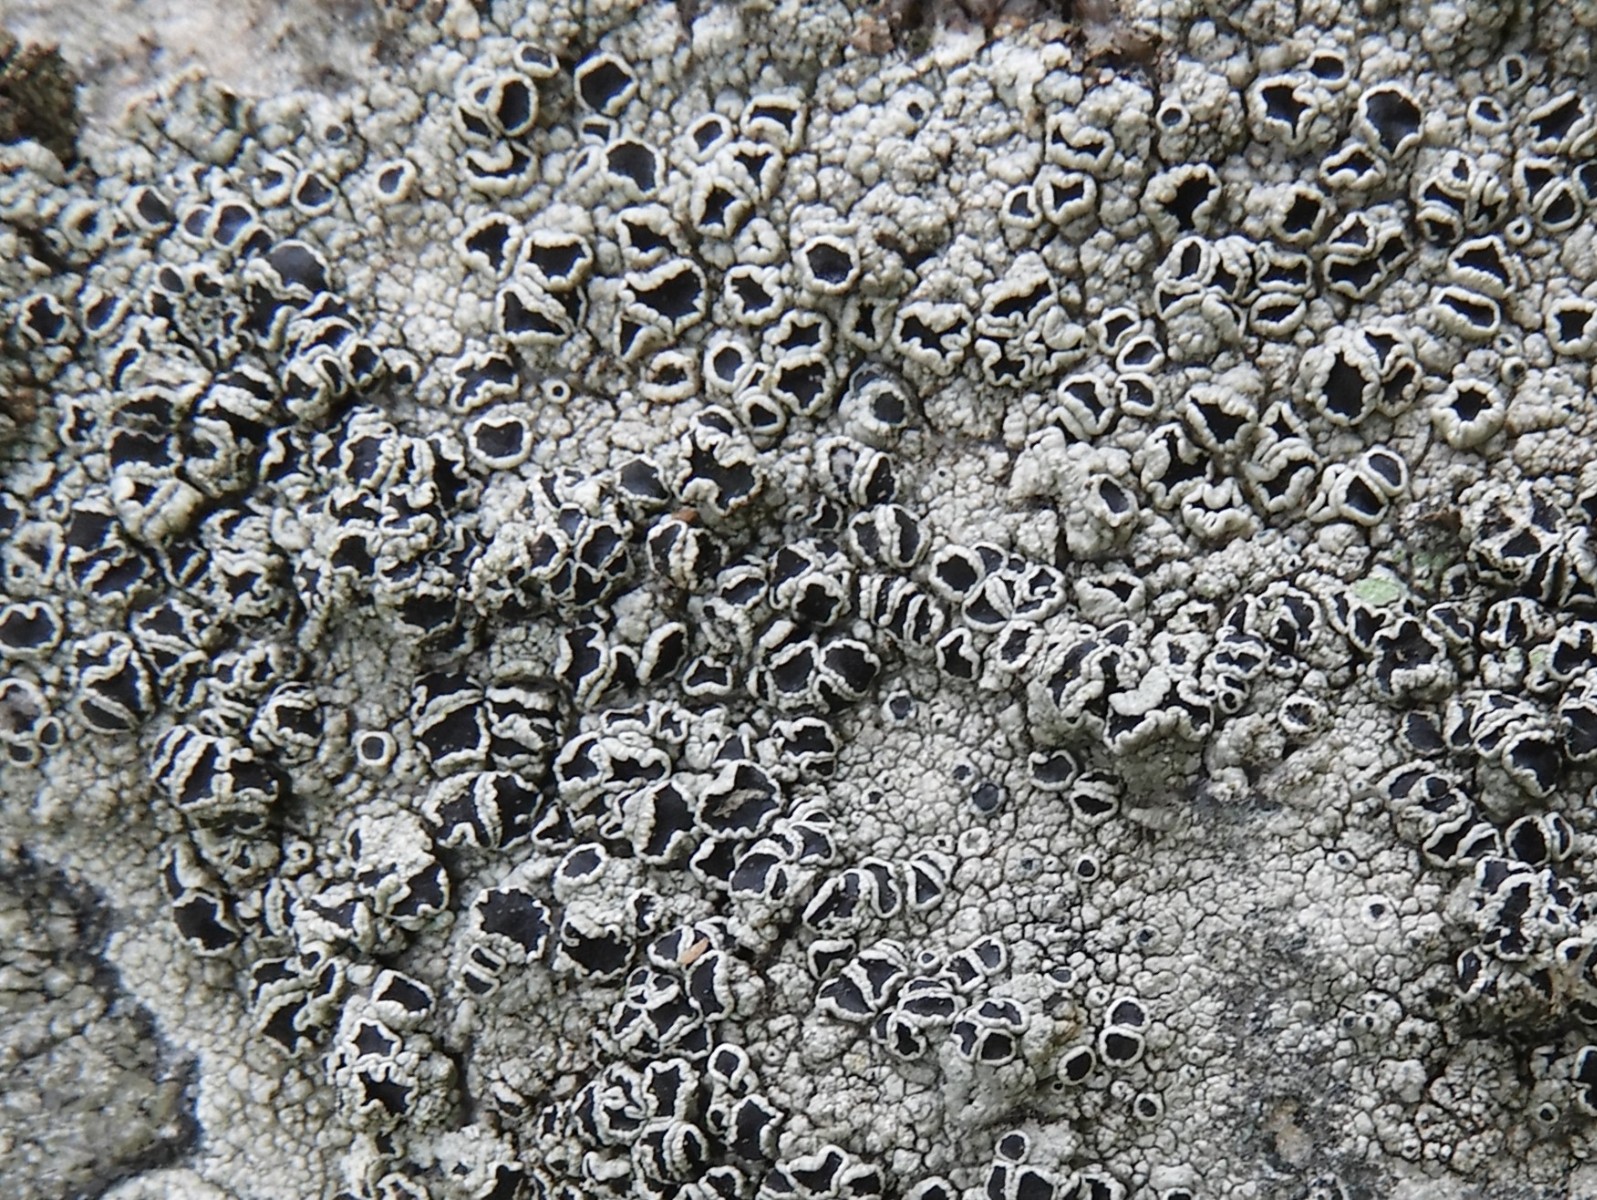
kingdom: Fungi
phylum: Ascomycota
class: Lecanoromycetes
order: Lecanorales
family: Tephromelataceae
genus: Tephromela
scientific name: Tephromela atra
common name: sortfrugtet kantskivelav
